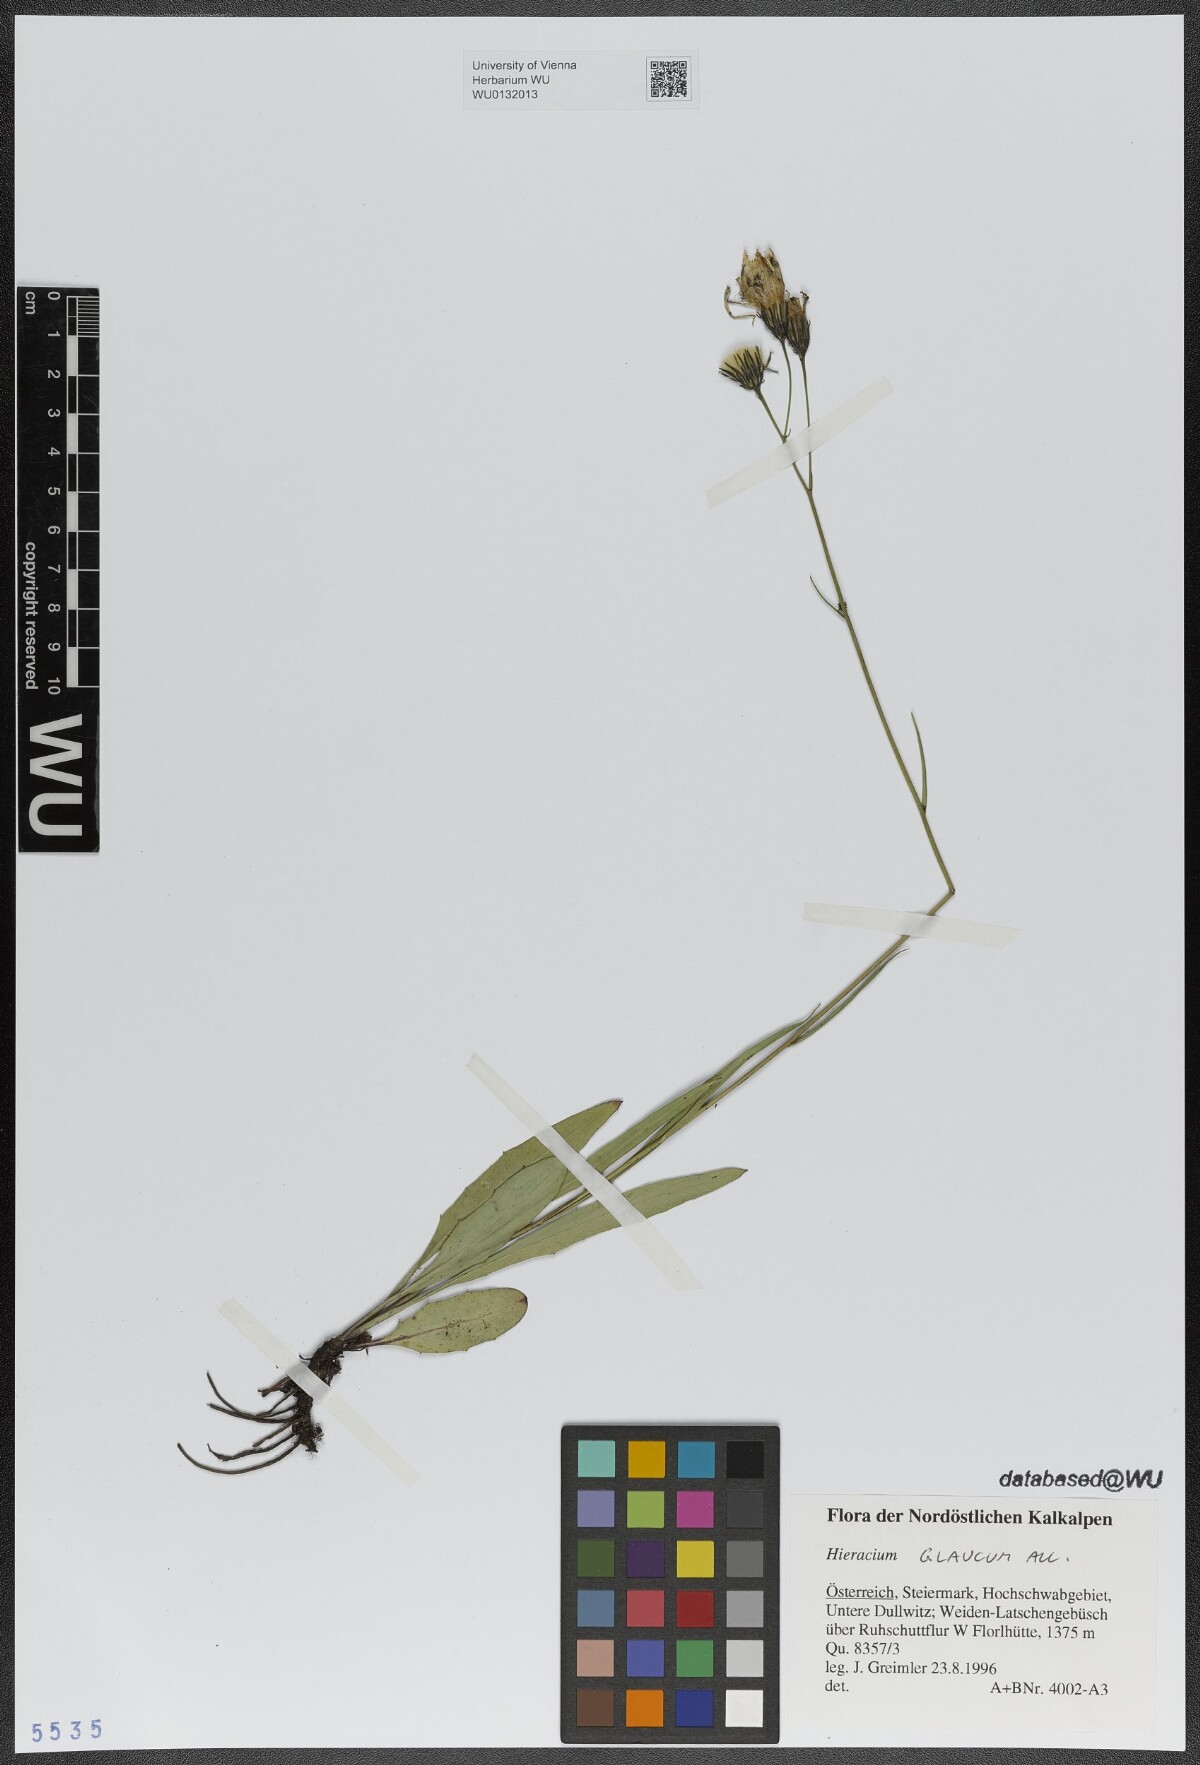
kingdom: Plantae
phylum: Tracheophyta
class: Magnoliopsida
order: Asterales
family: Asteraceae
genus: Hieracium
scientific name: Hieracium glaucum
